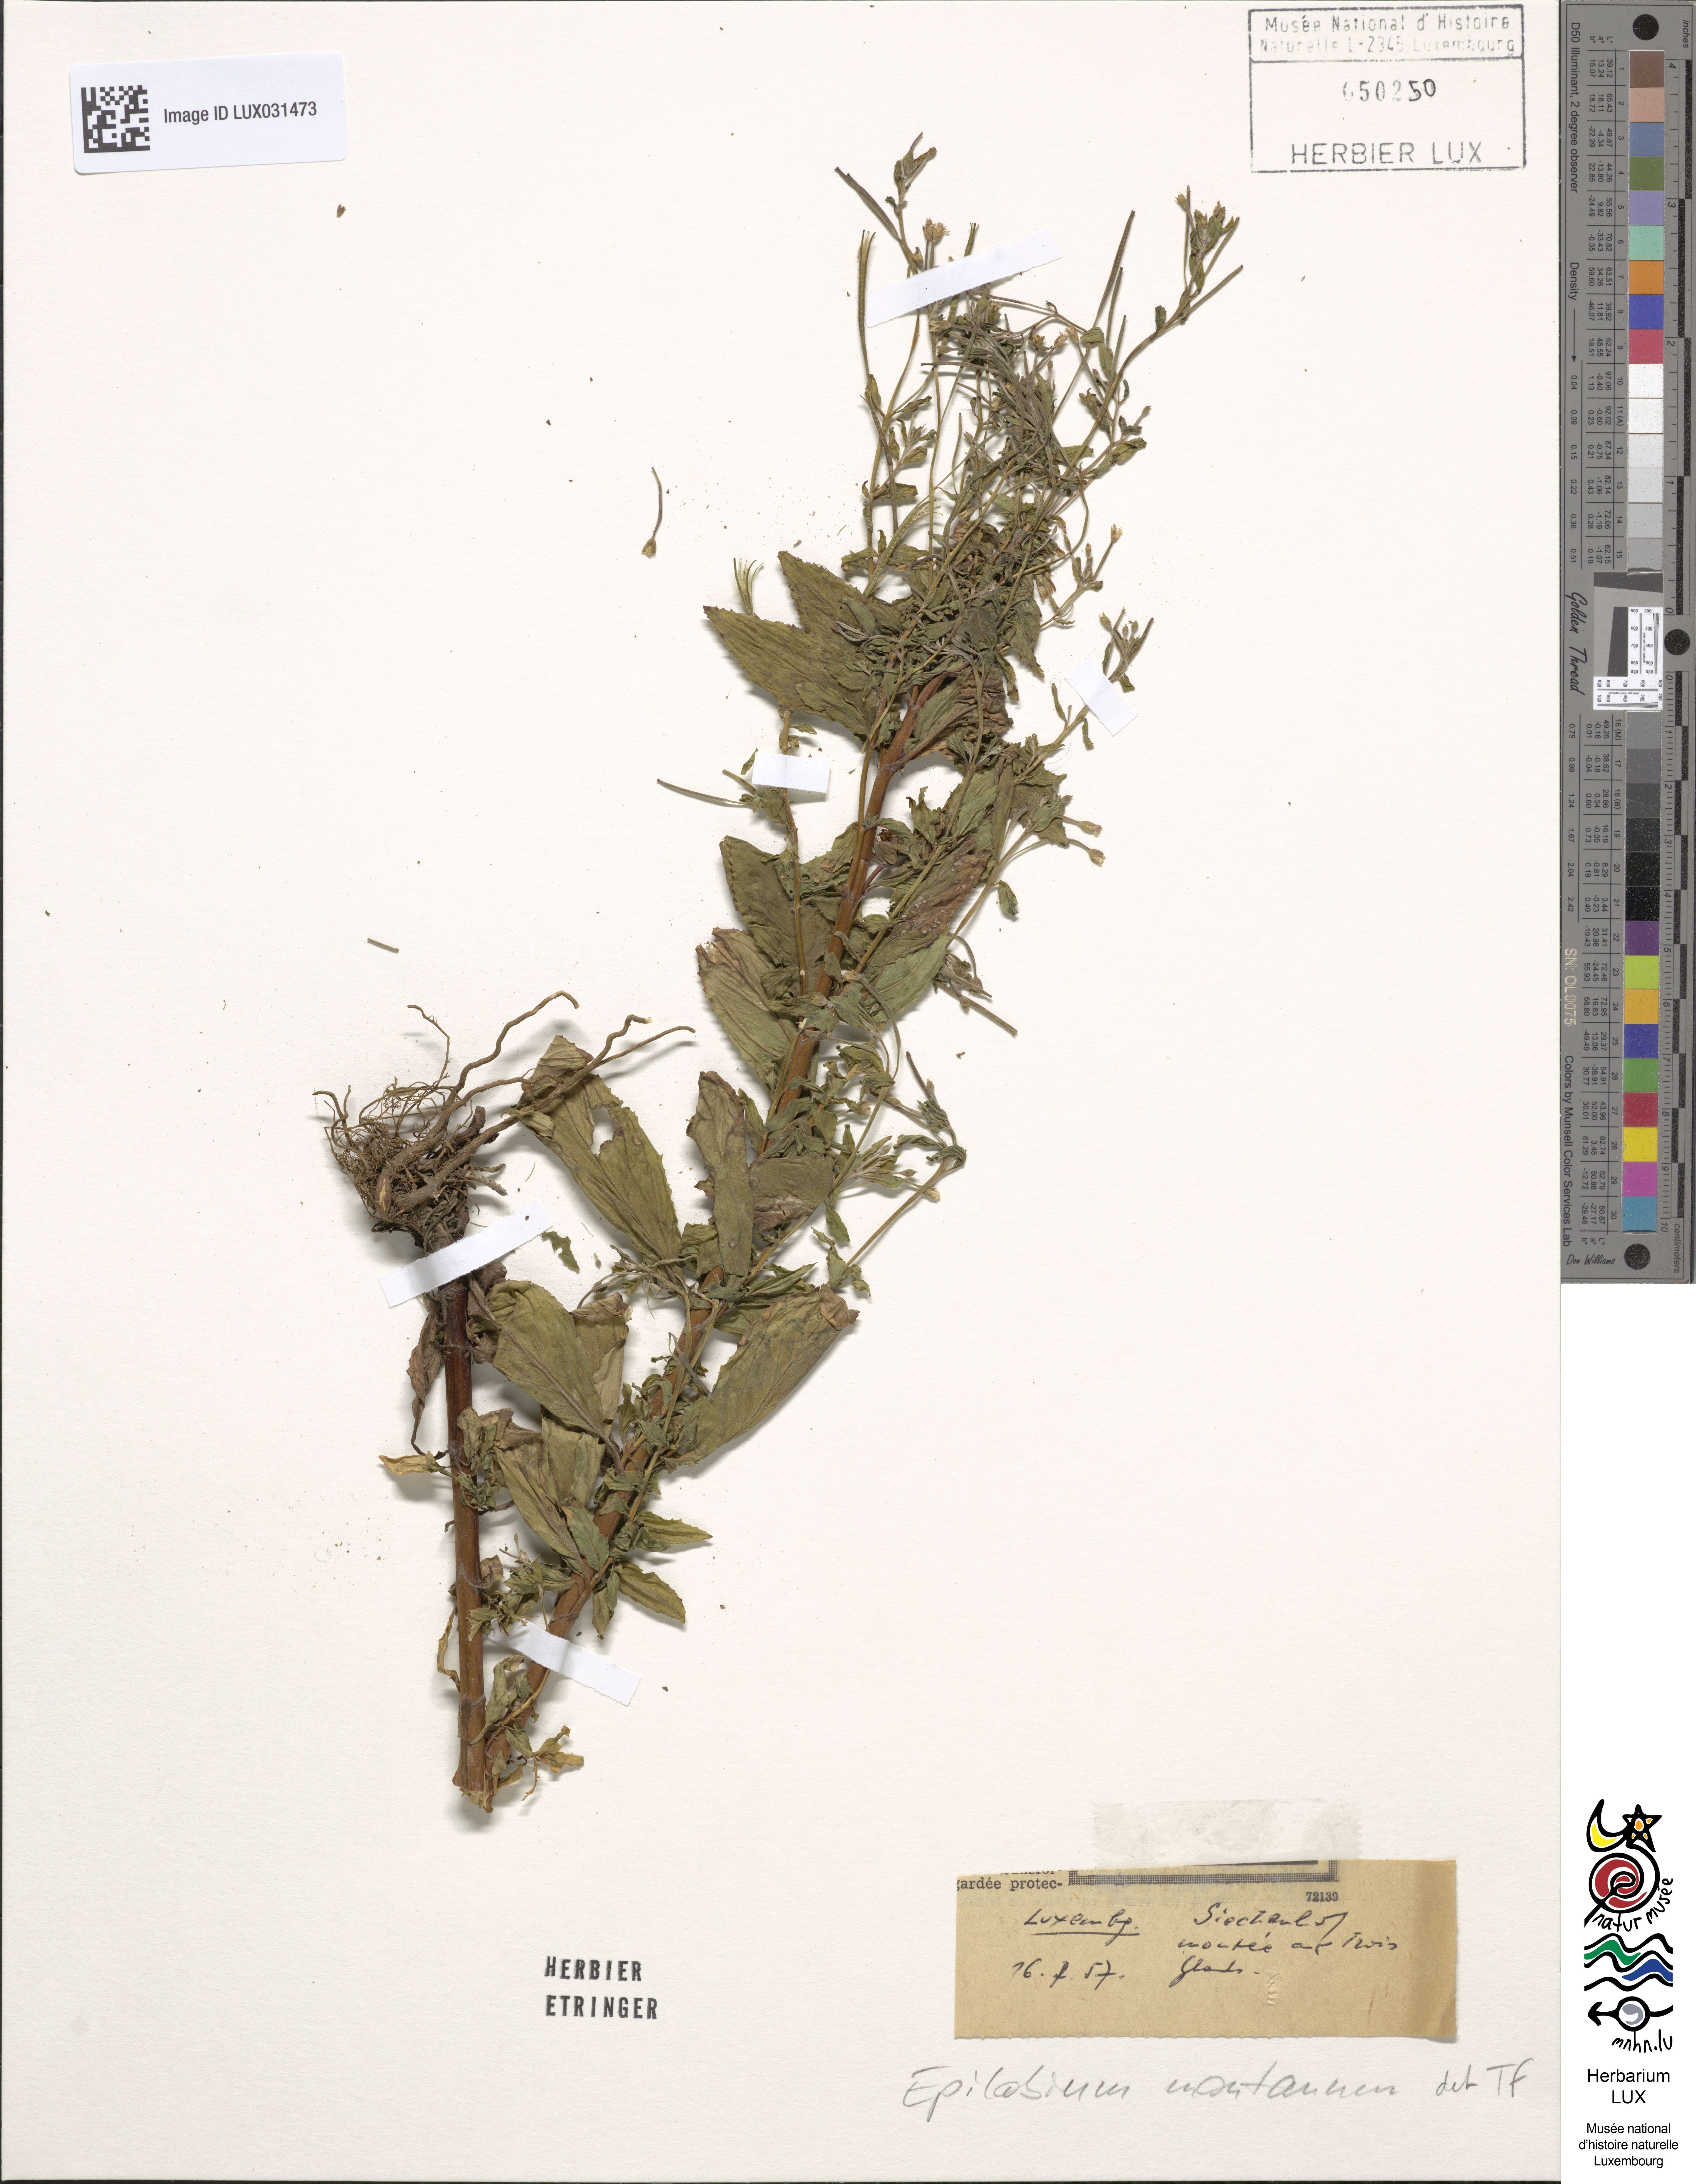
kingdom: Plantae
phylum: Tracheophyta
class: Magnoliopsida
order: Myrtales
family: Onagraceae
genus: Epilobium
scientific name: Epilobium montanum
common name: Broad-leaved willowherb
